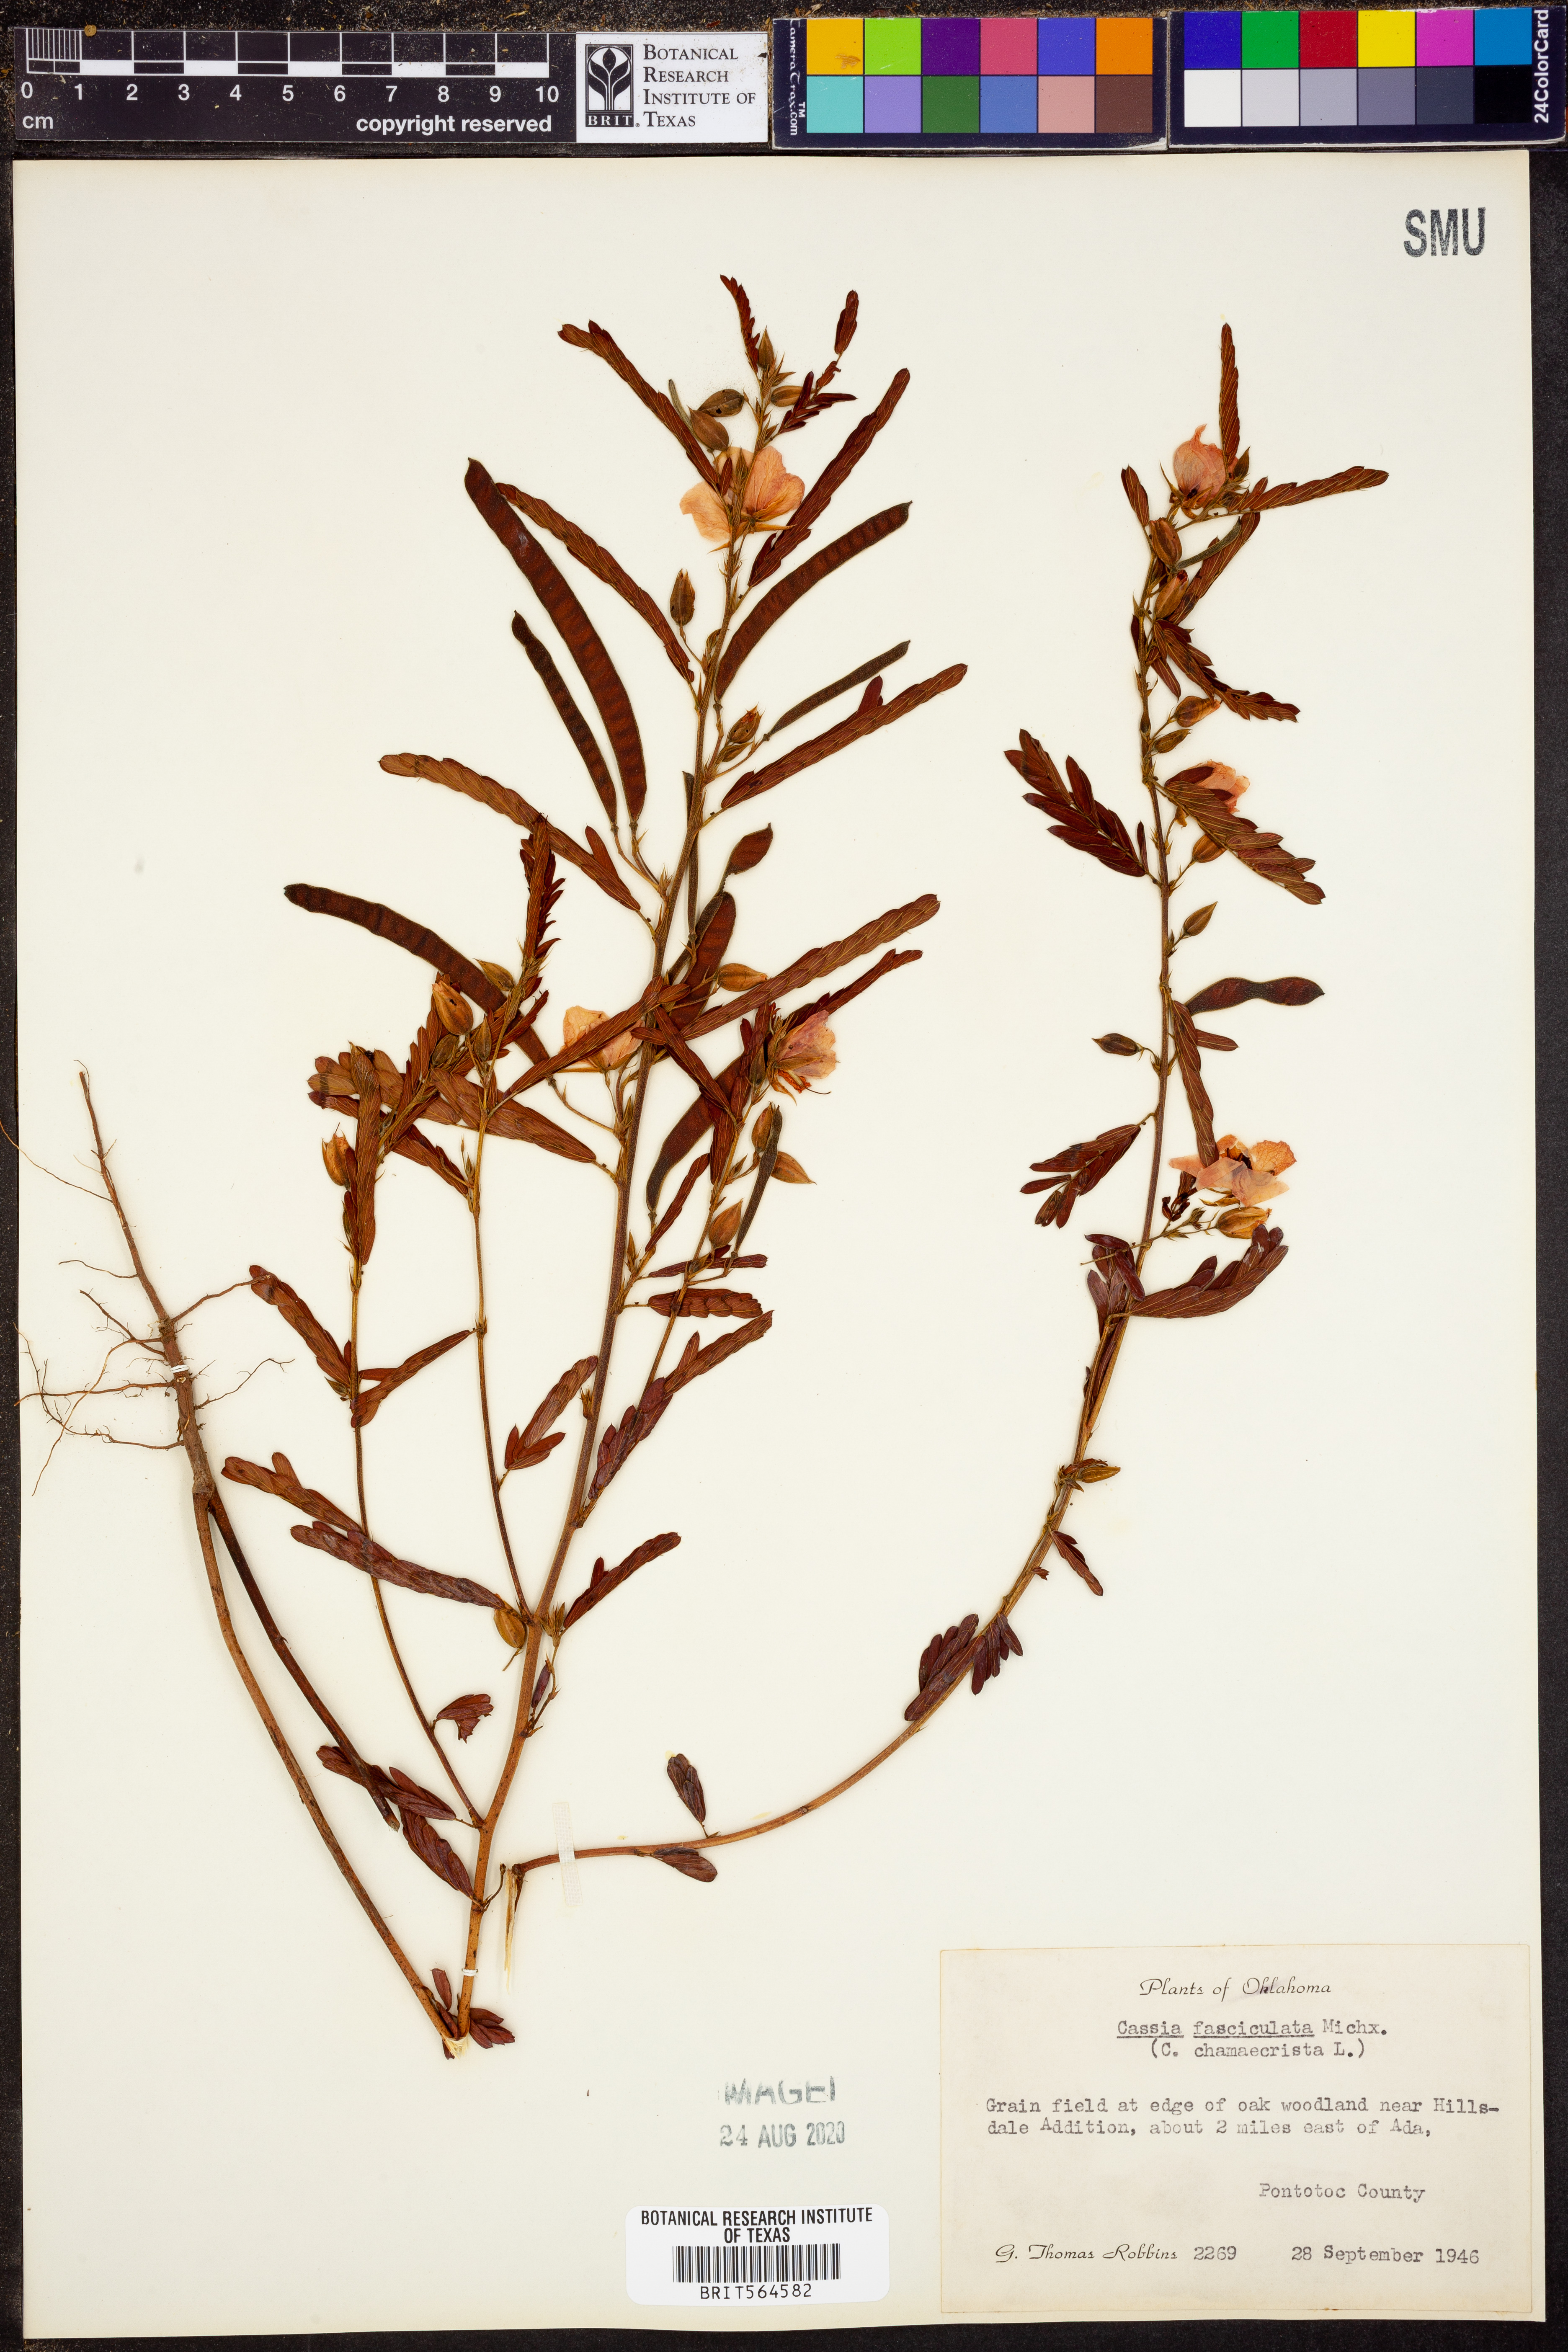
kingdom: Plantae
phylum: Tracheophyta
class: Magnoliopsida
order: Fabales
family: Fabaceae
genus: Chamaecrista
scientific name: Chamaecrista fasciculata
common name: Golden cassia
